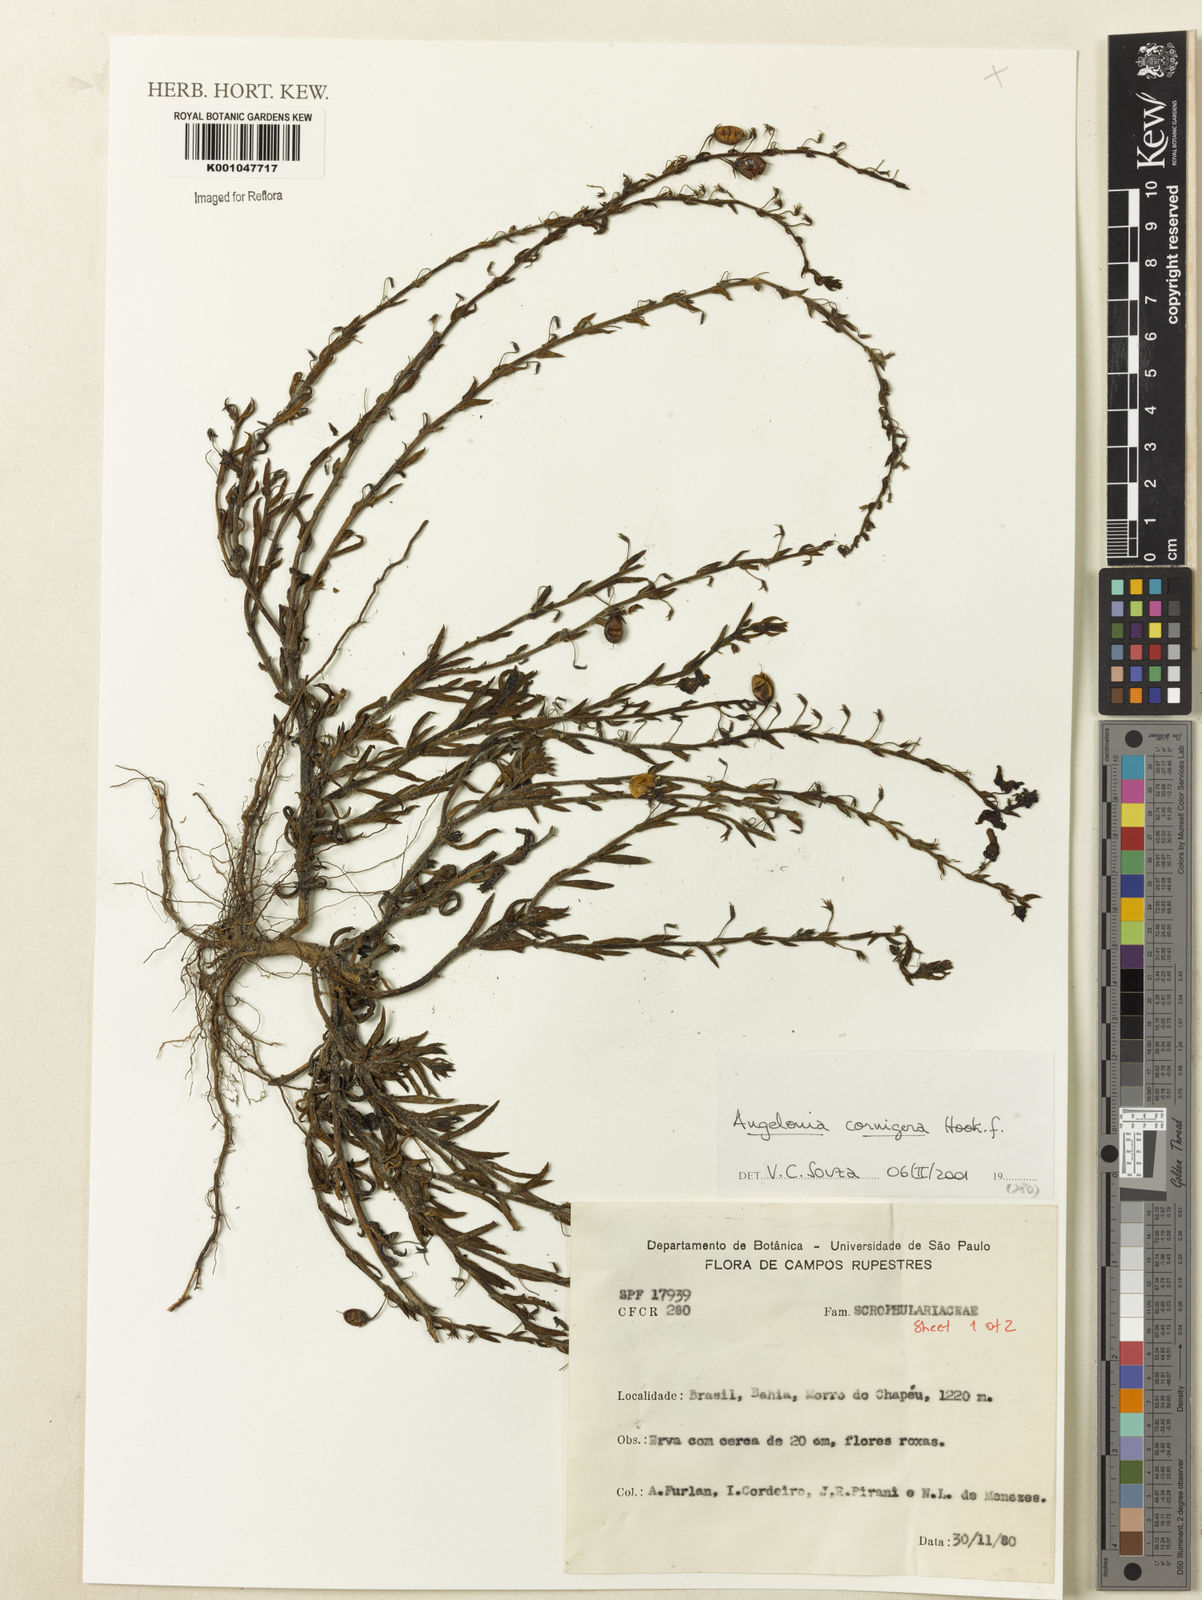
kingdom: Plantae
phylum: Tracheophyta
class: Magnoliopsida
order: Lamiales
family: Plantaginaceae
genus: Angelonia
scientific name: Angelonia cornigera
